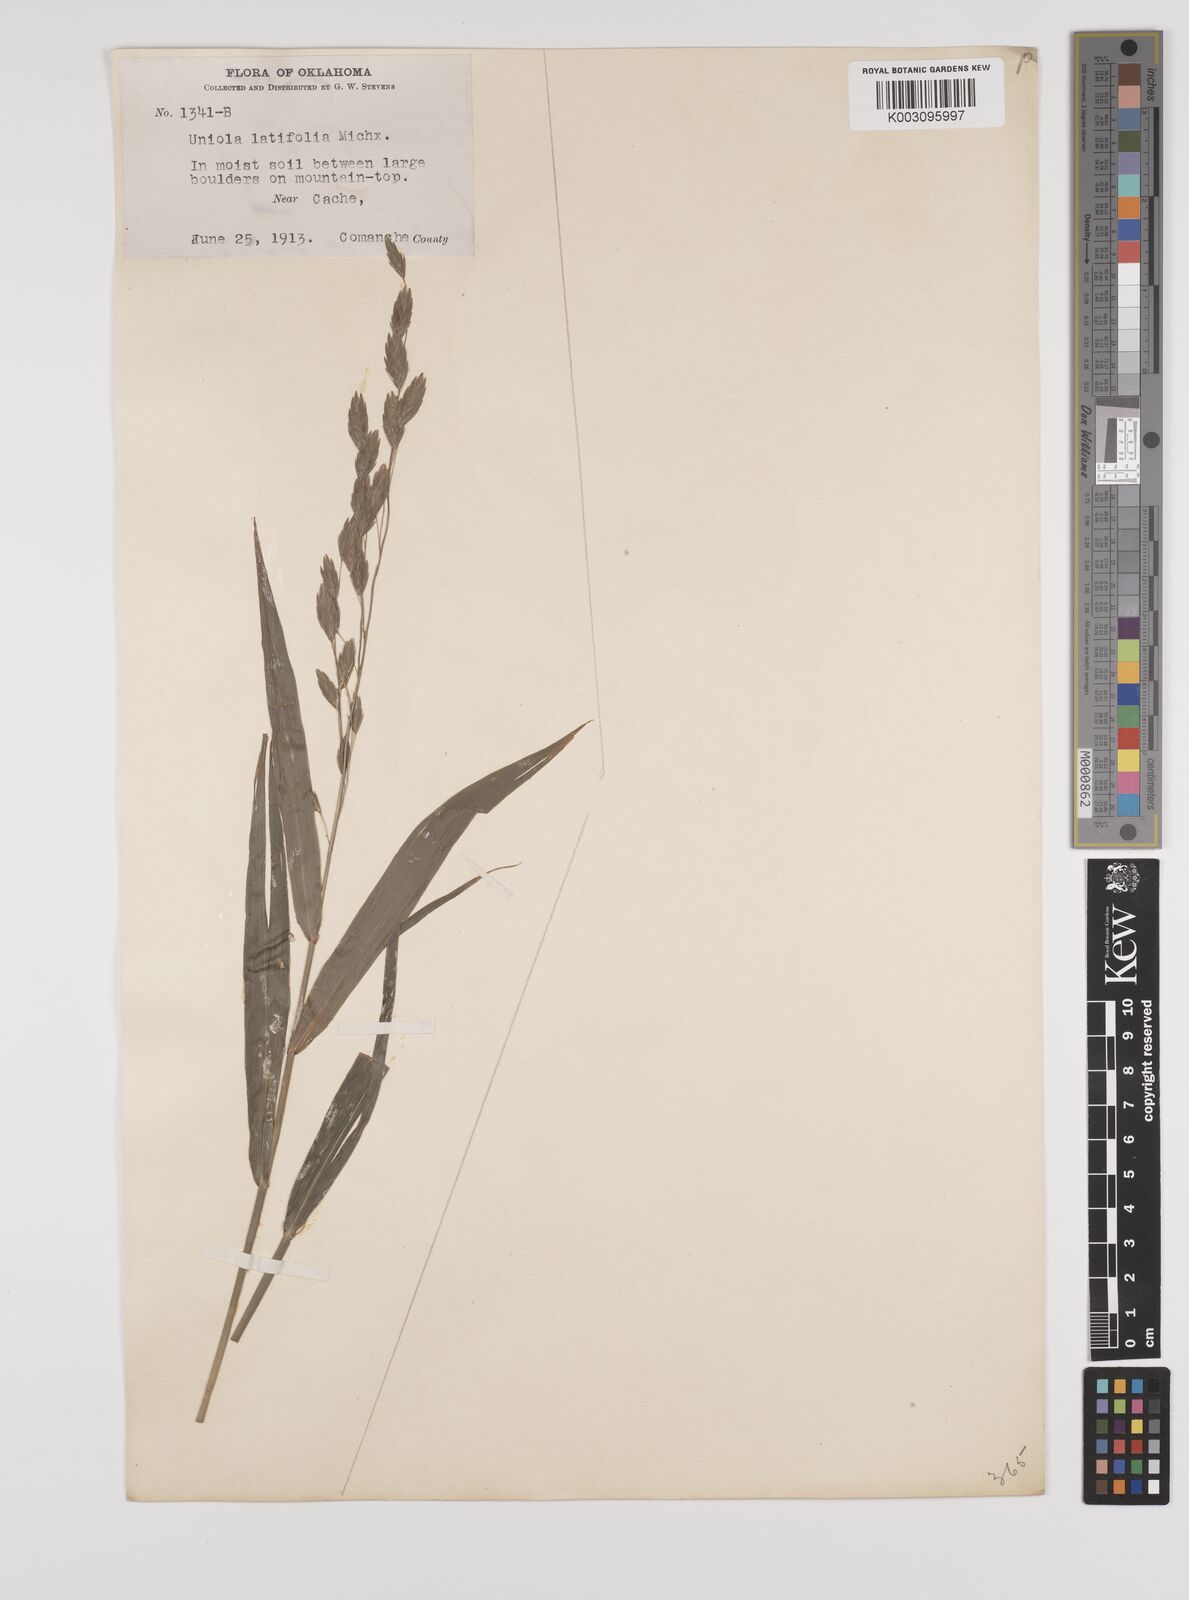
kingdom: Plantae
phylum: Tracheophyta
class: Liliopsida
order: Poales
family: Poaceae
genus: Chasmanthium
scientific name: Chasmanthium latifolium
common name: Broad-leaved chasmanthium
